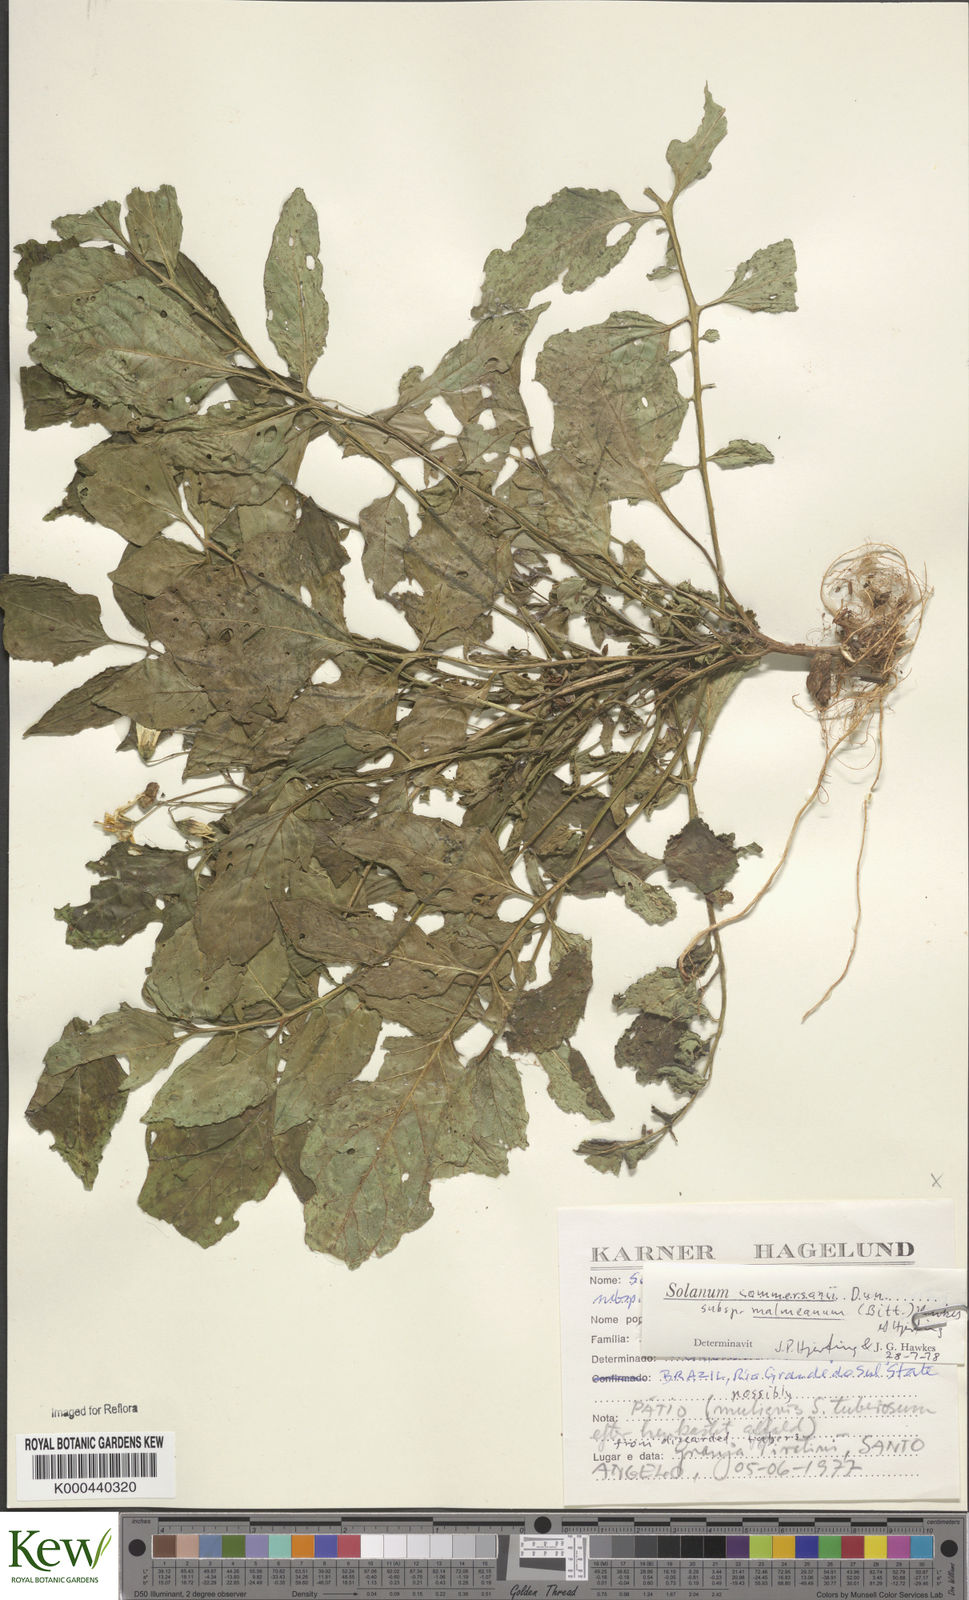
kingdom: Plantae
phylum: Tracheophyta
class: Magnoliopsida
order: Solanales
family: Solanaceae
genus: Solanum
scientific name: Solanum commersonii
